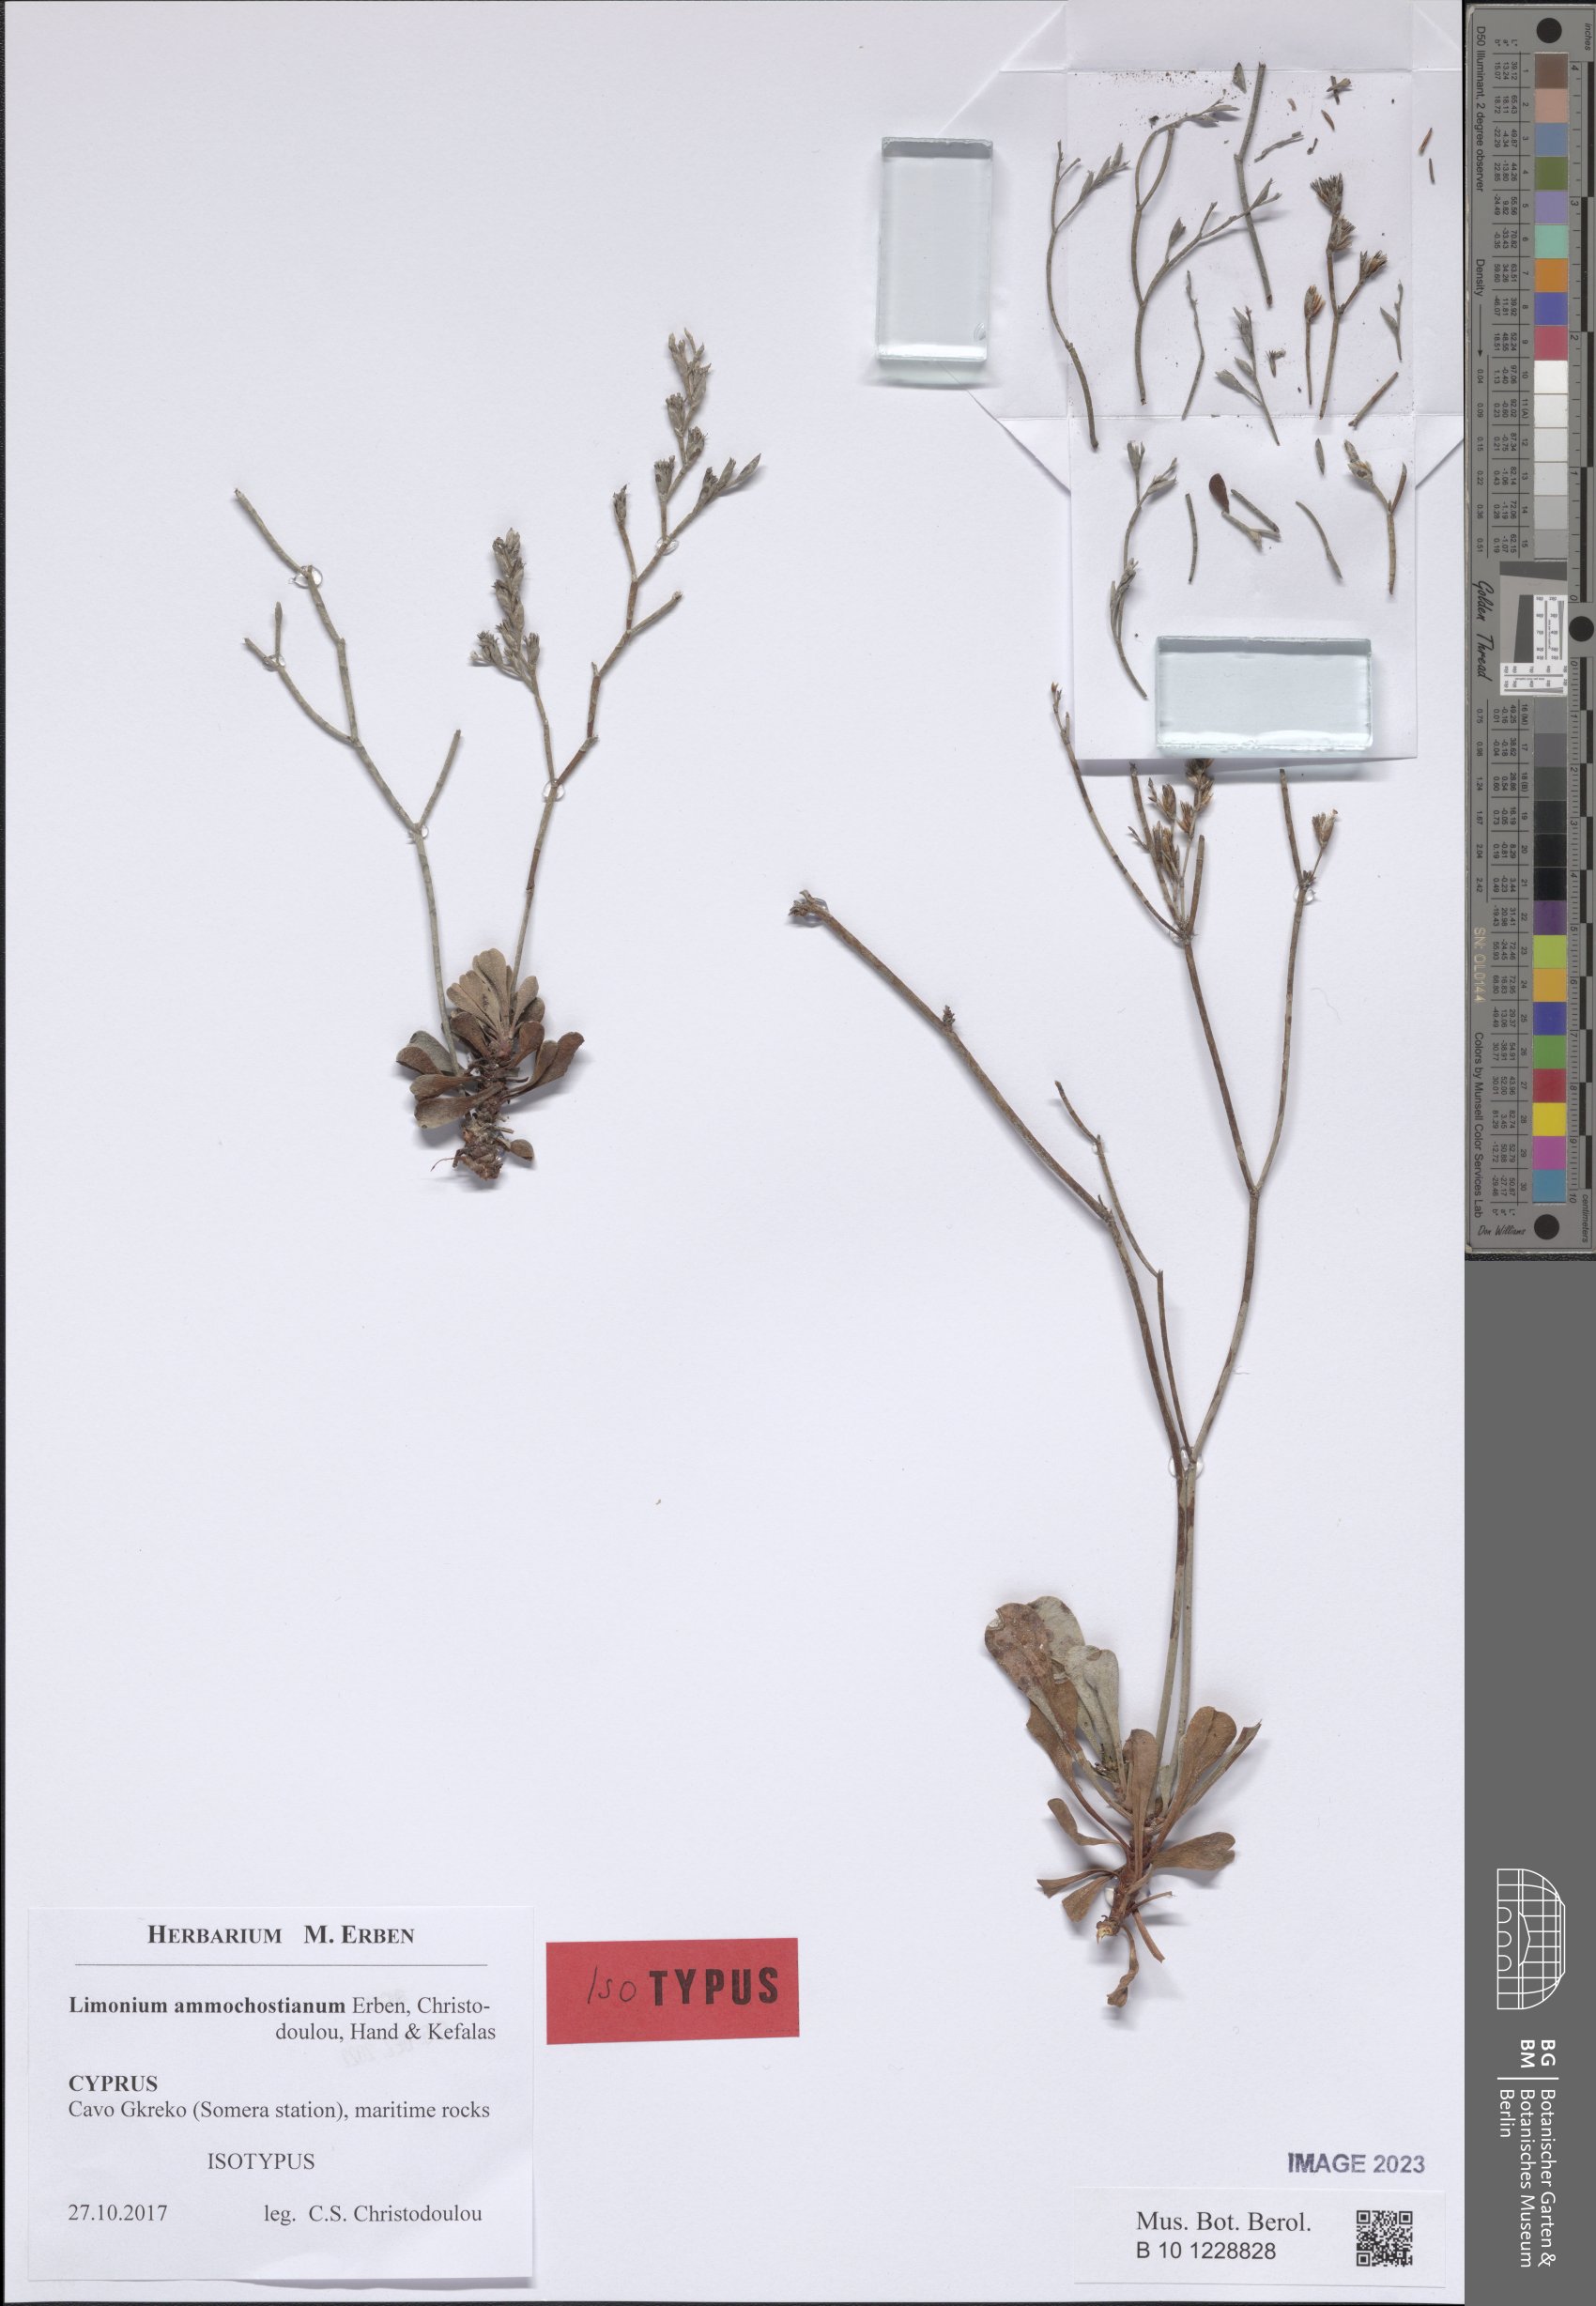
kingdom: Plantae
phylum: Tracheophyta
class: Magnoliopsida
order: Caryophyllales
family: Plumbaginaceae
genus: Limonium
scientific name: Limonium ammochostianum
